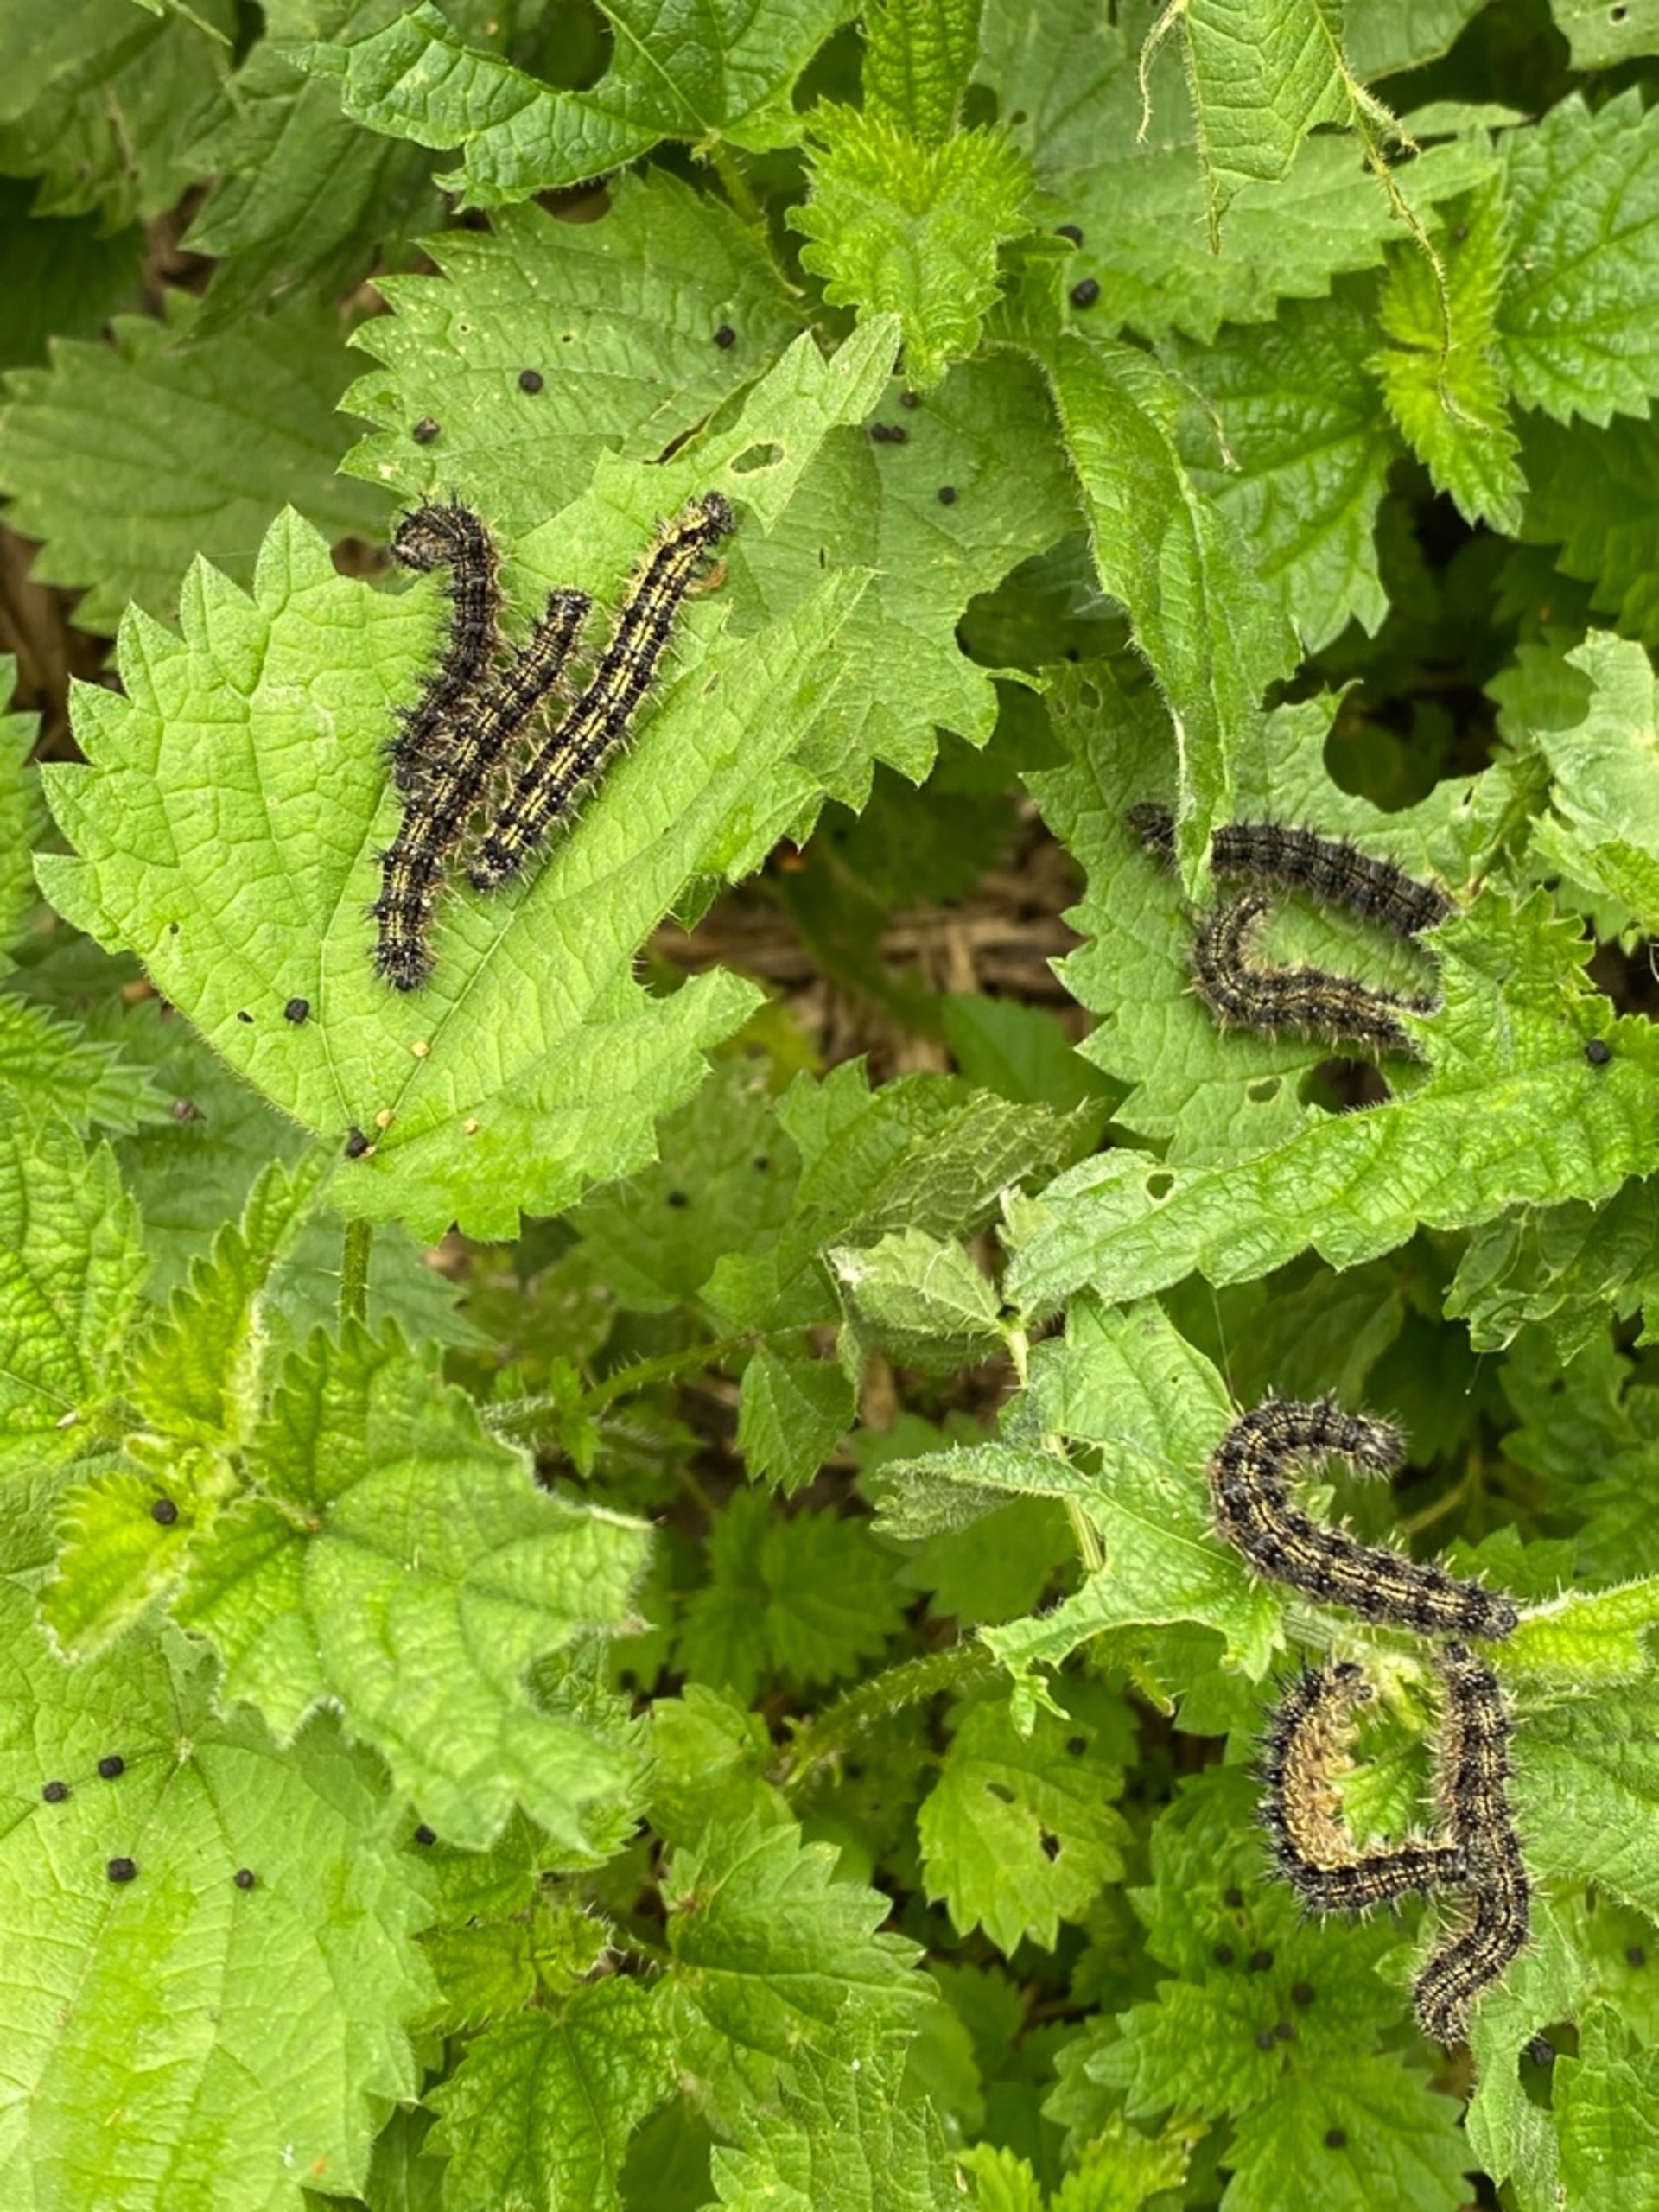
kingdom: Animalia
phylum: Arthropoda
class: Insecta
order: Lepidoptera
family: Nymphalidae
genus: Aglais
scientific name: Aglais urticae
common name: Nældens takvinge
